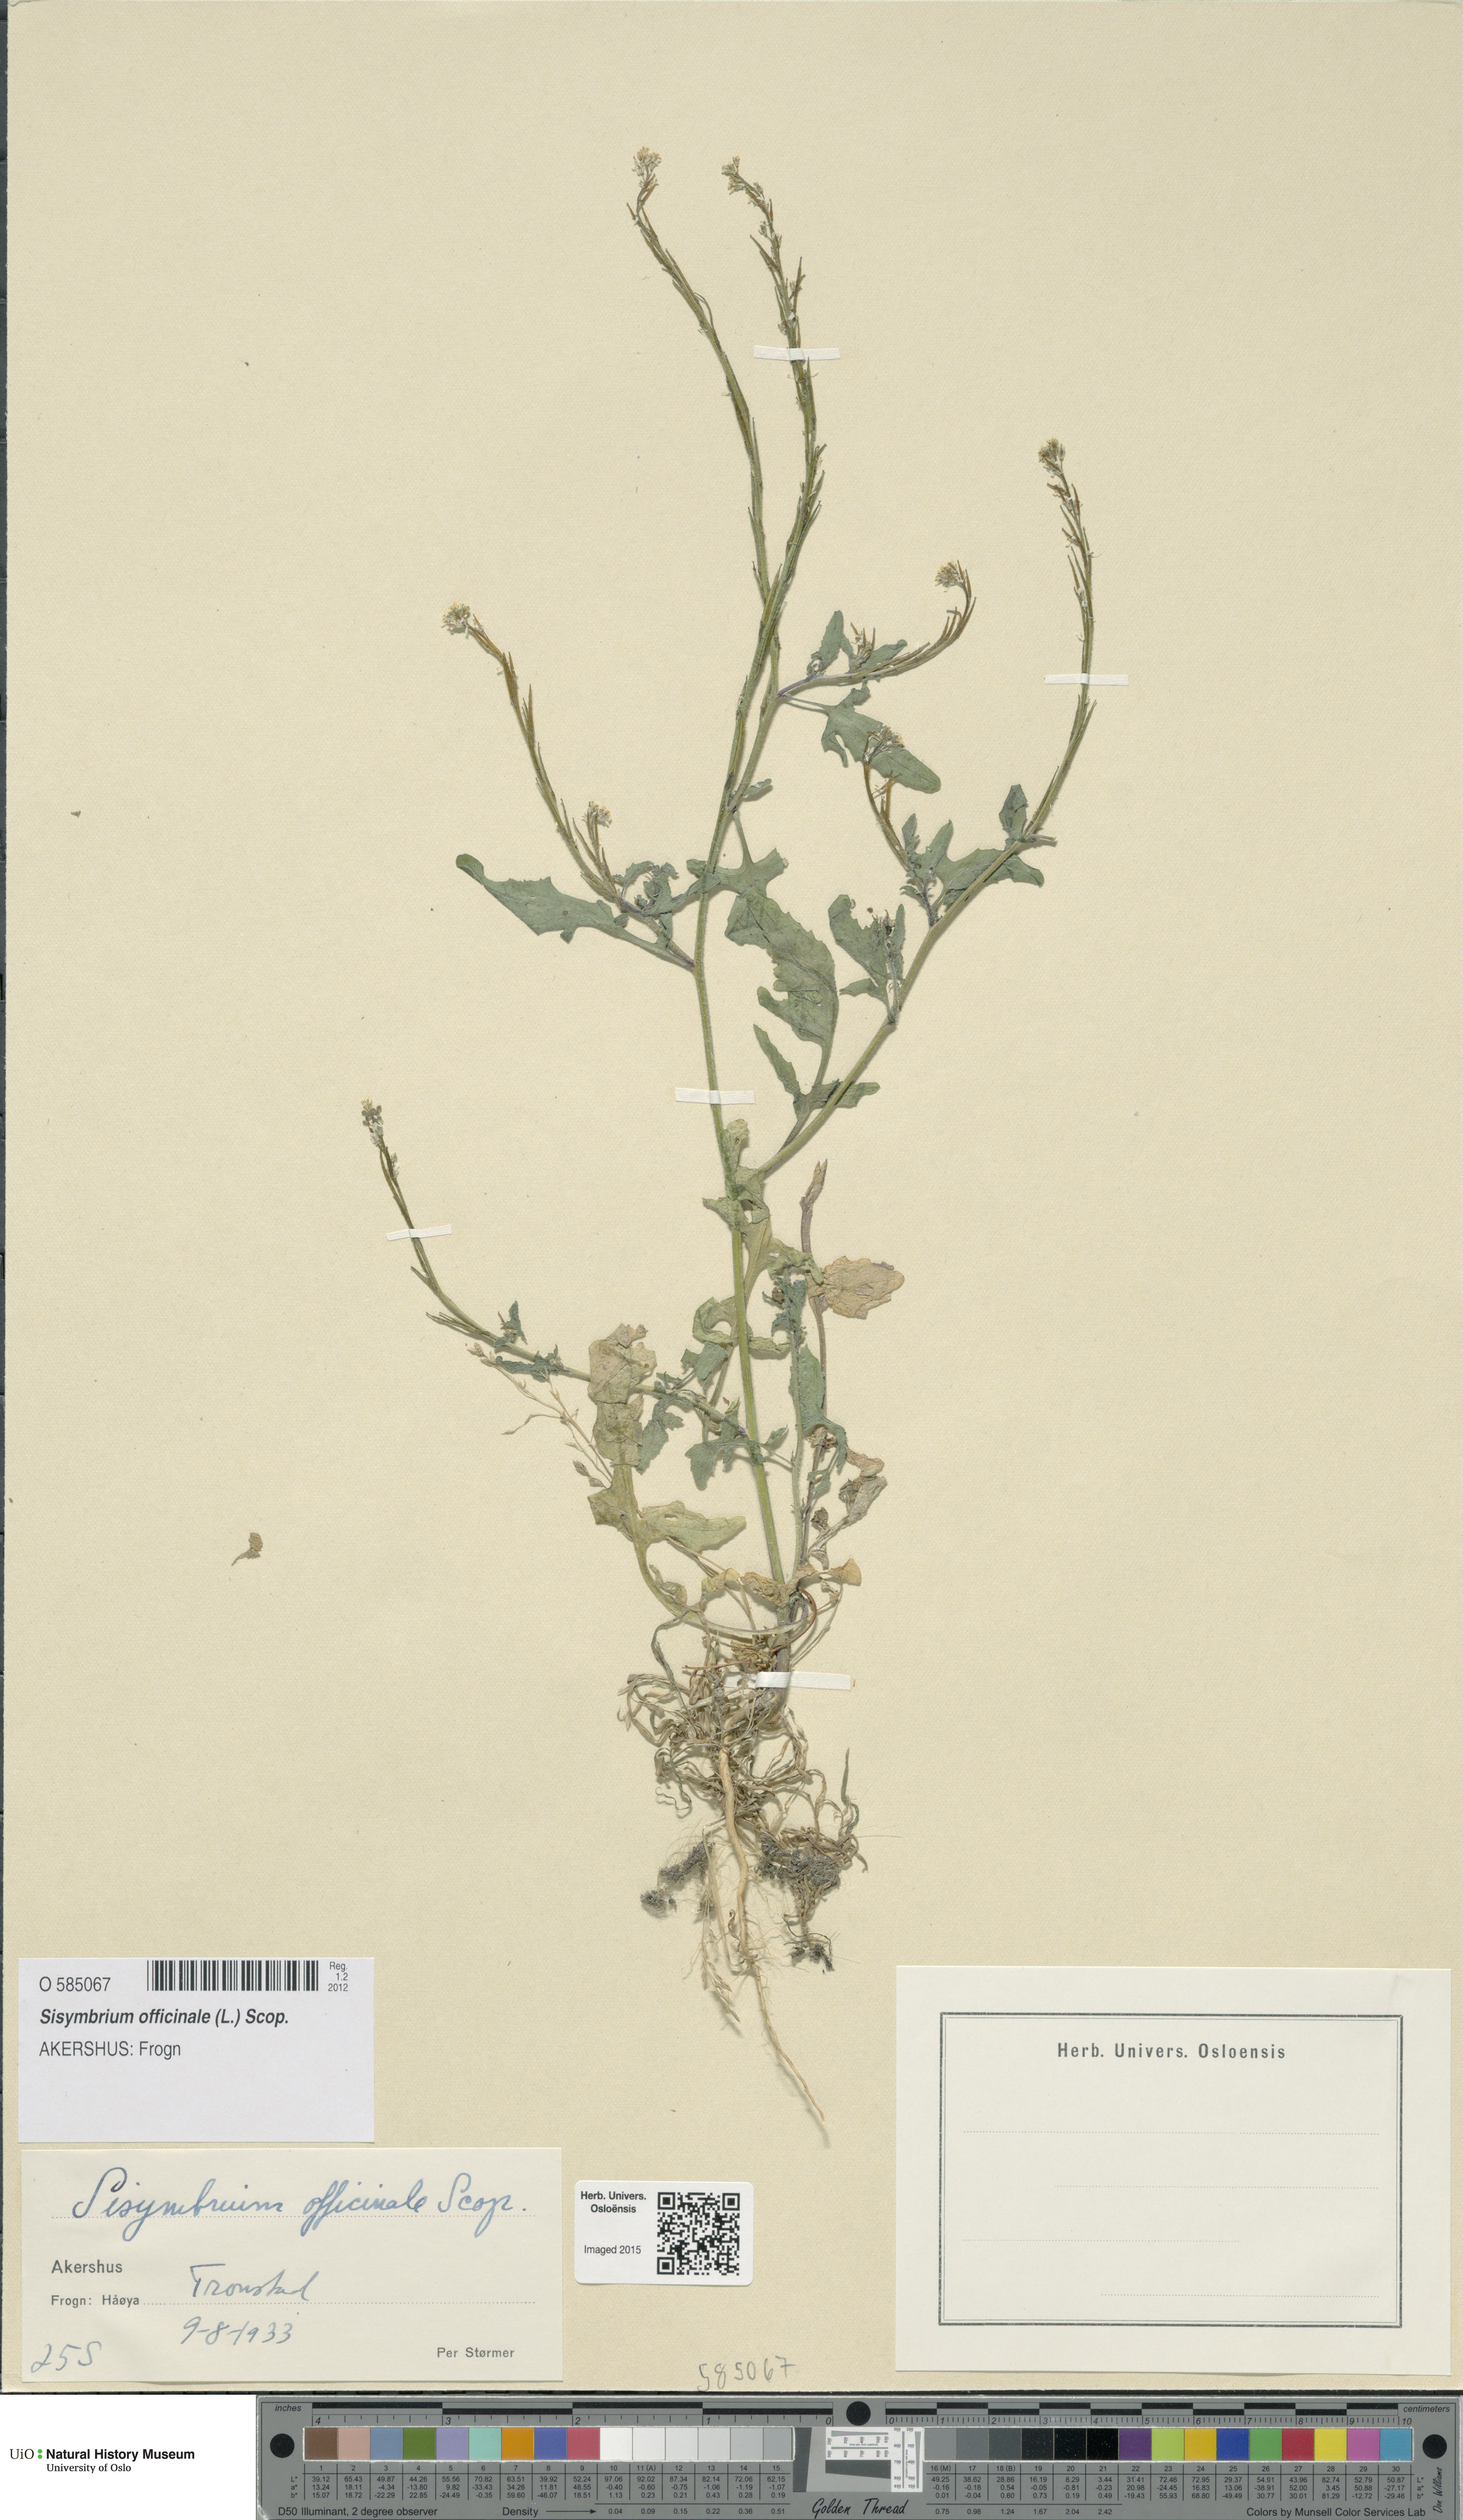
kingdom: Plantae
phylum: Tracheophyta
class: Magnoliopsida
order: Brassicales
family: Brassicaceae
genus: Sisymbrium
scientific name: Sisymbrium officinale
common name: Hedge mustard
